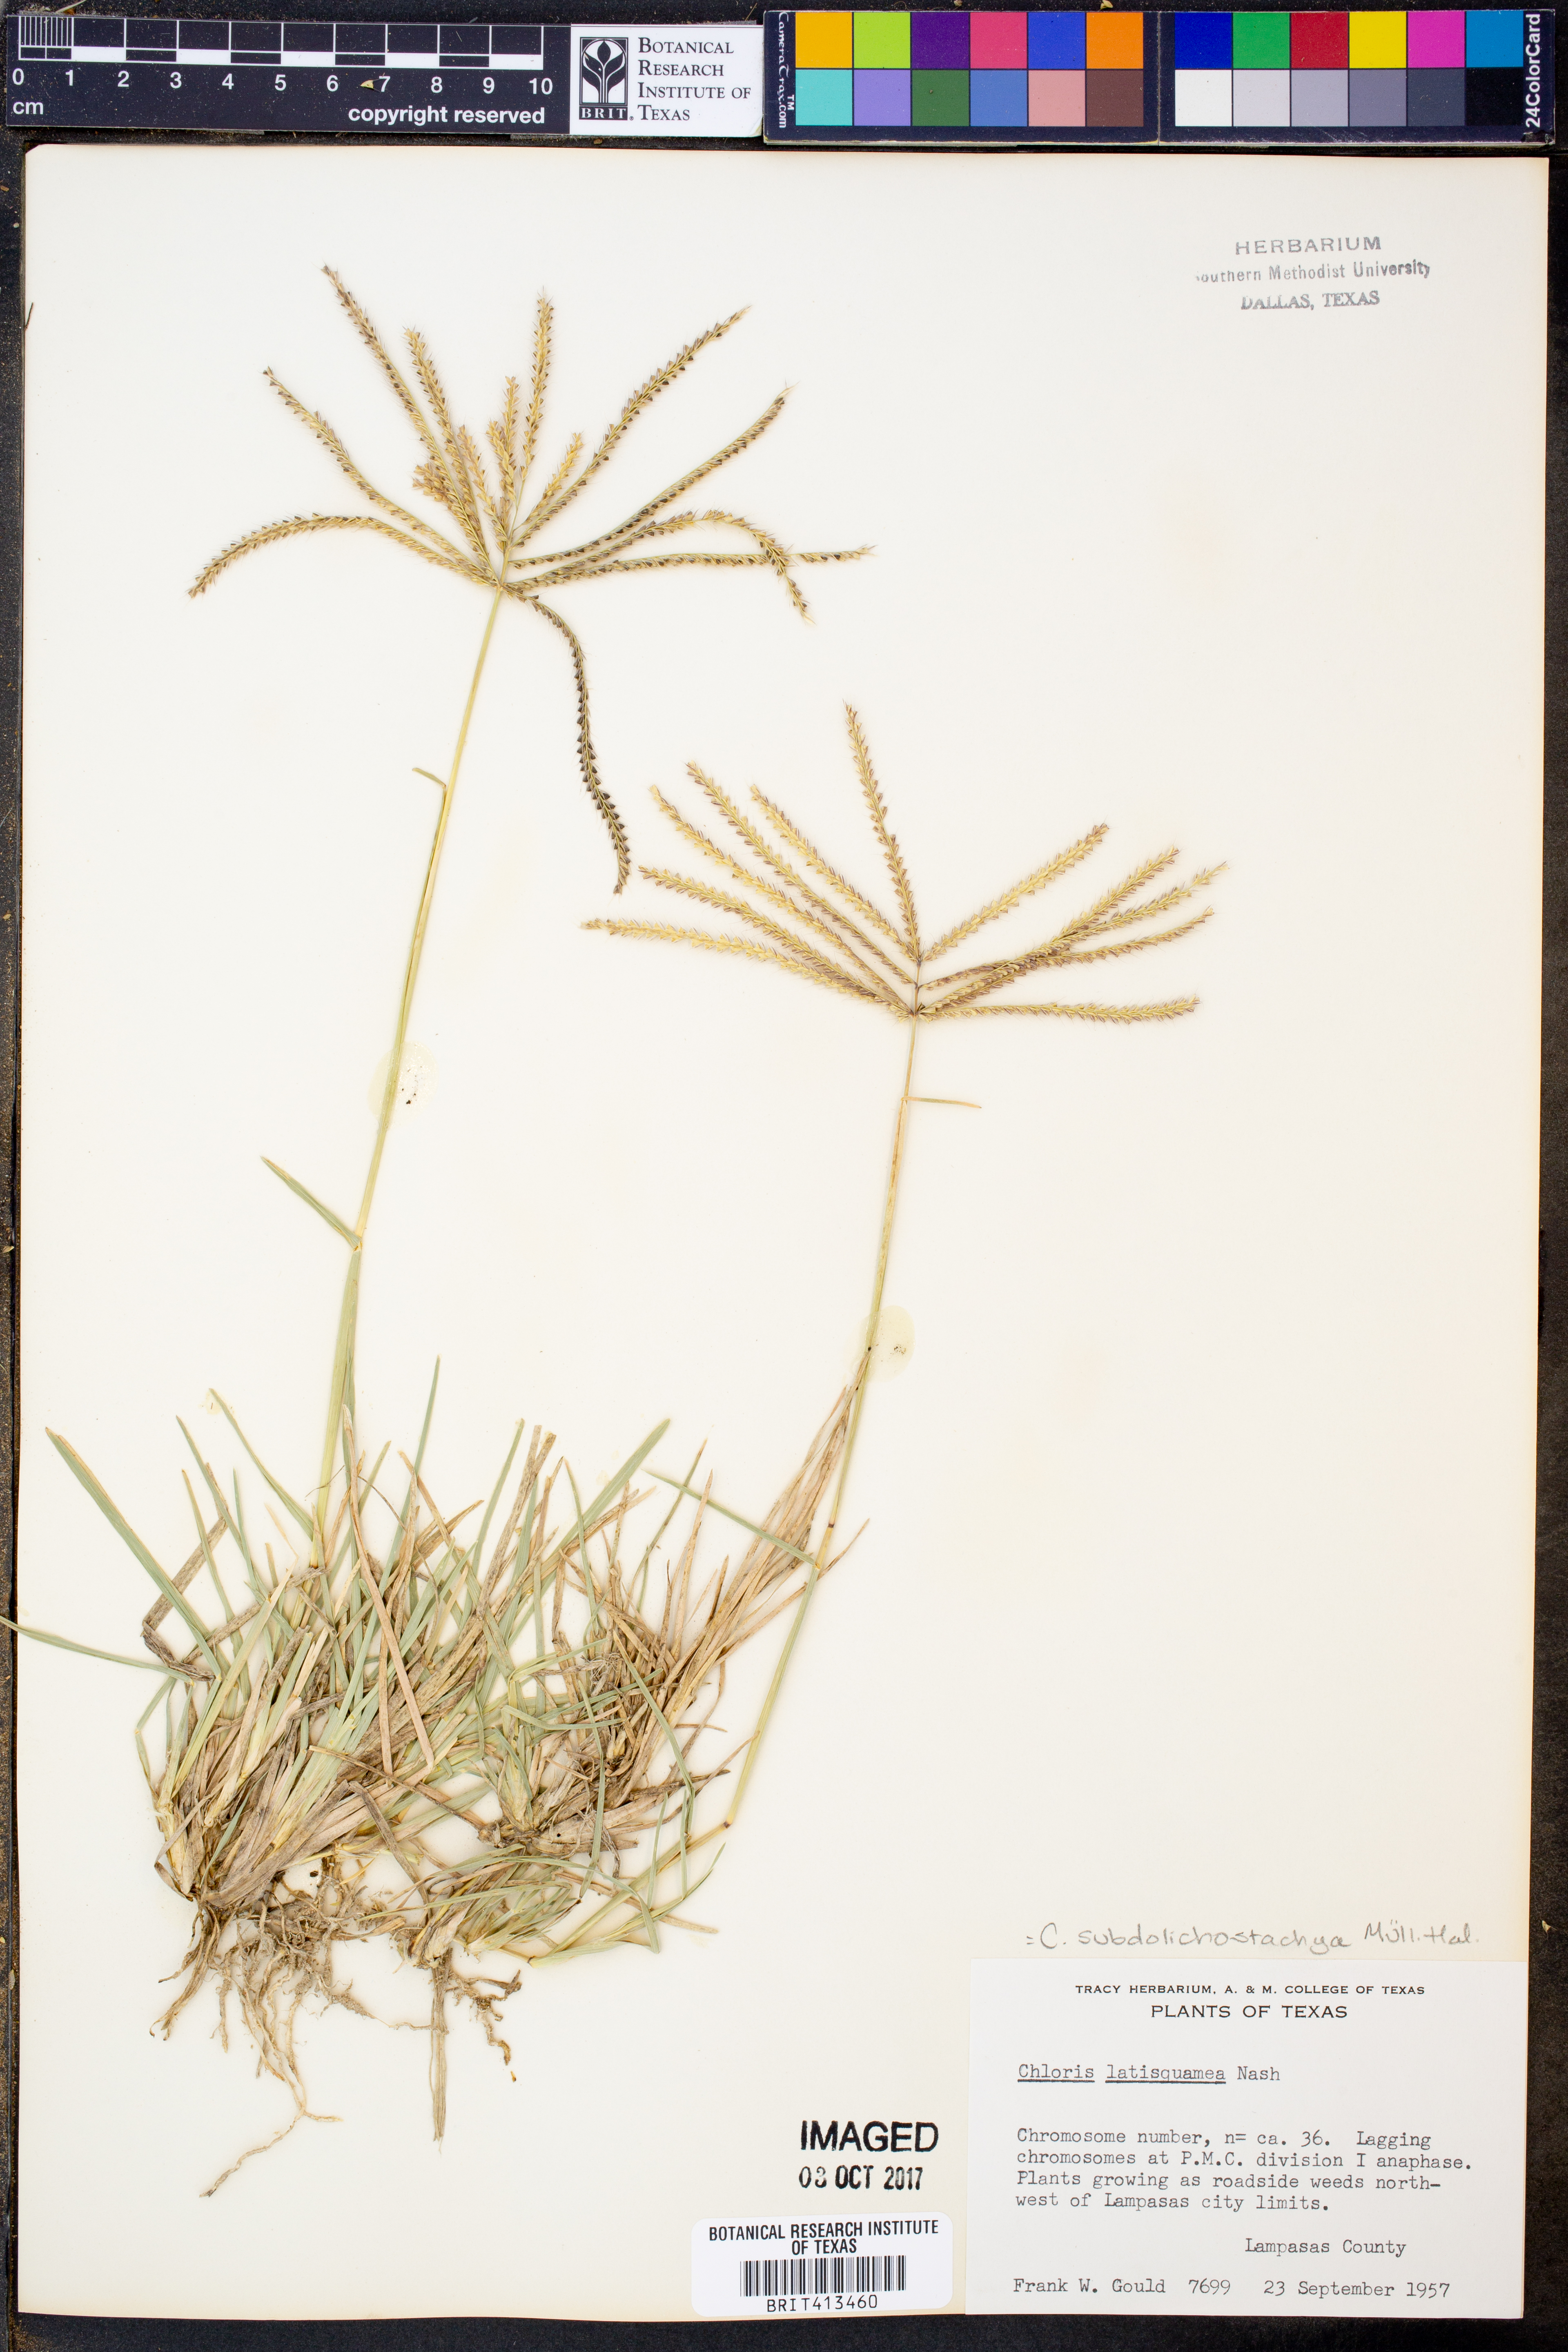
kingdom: Plantae
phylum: Tracheophyta
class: Liliopsida
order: Poales
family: Poaceae
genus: Chloris
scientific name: Chloris subdolichostachya
